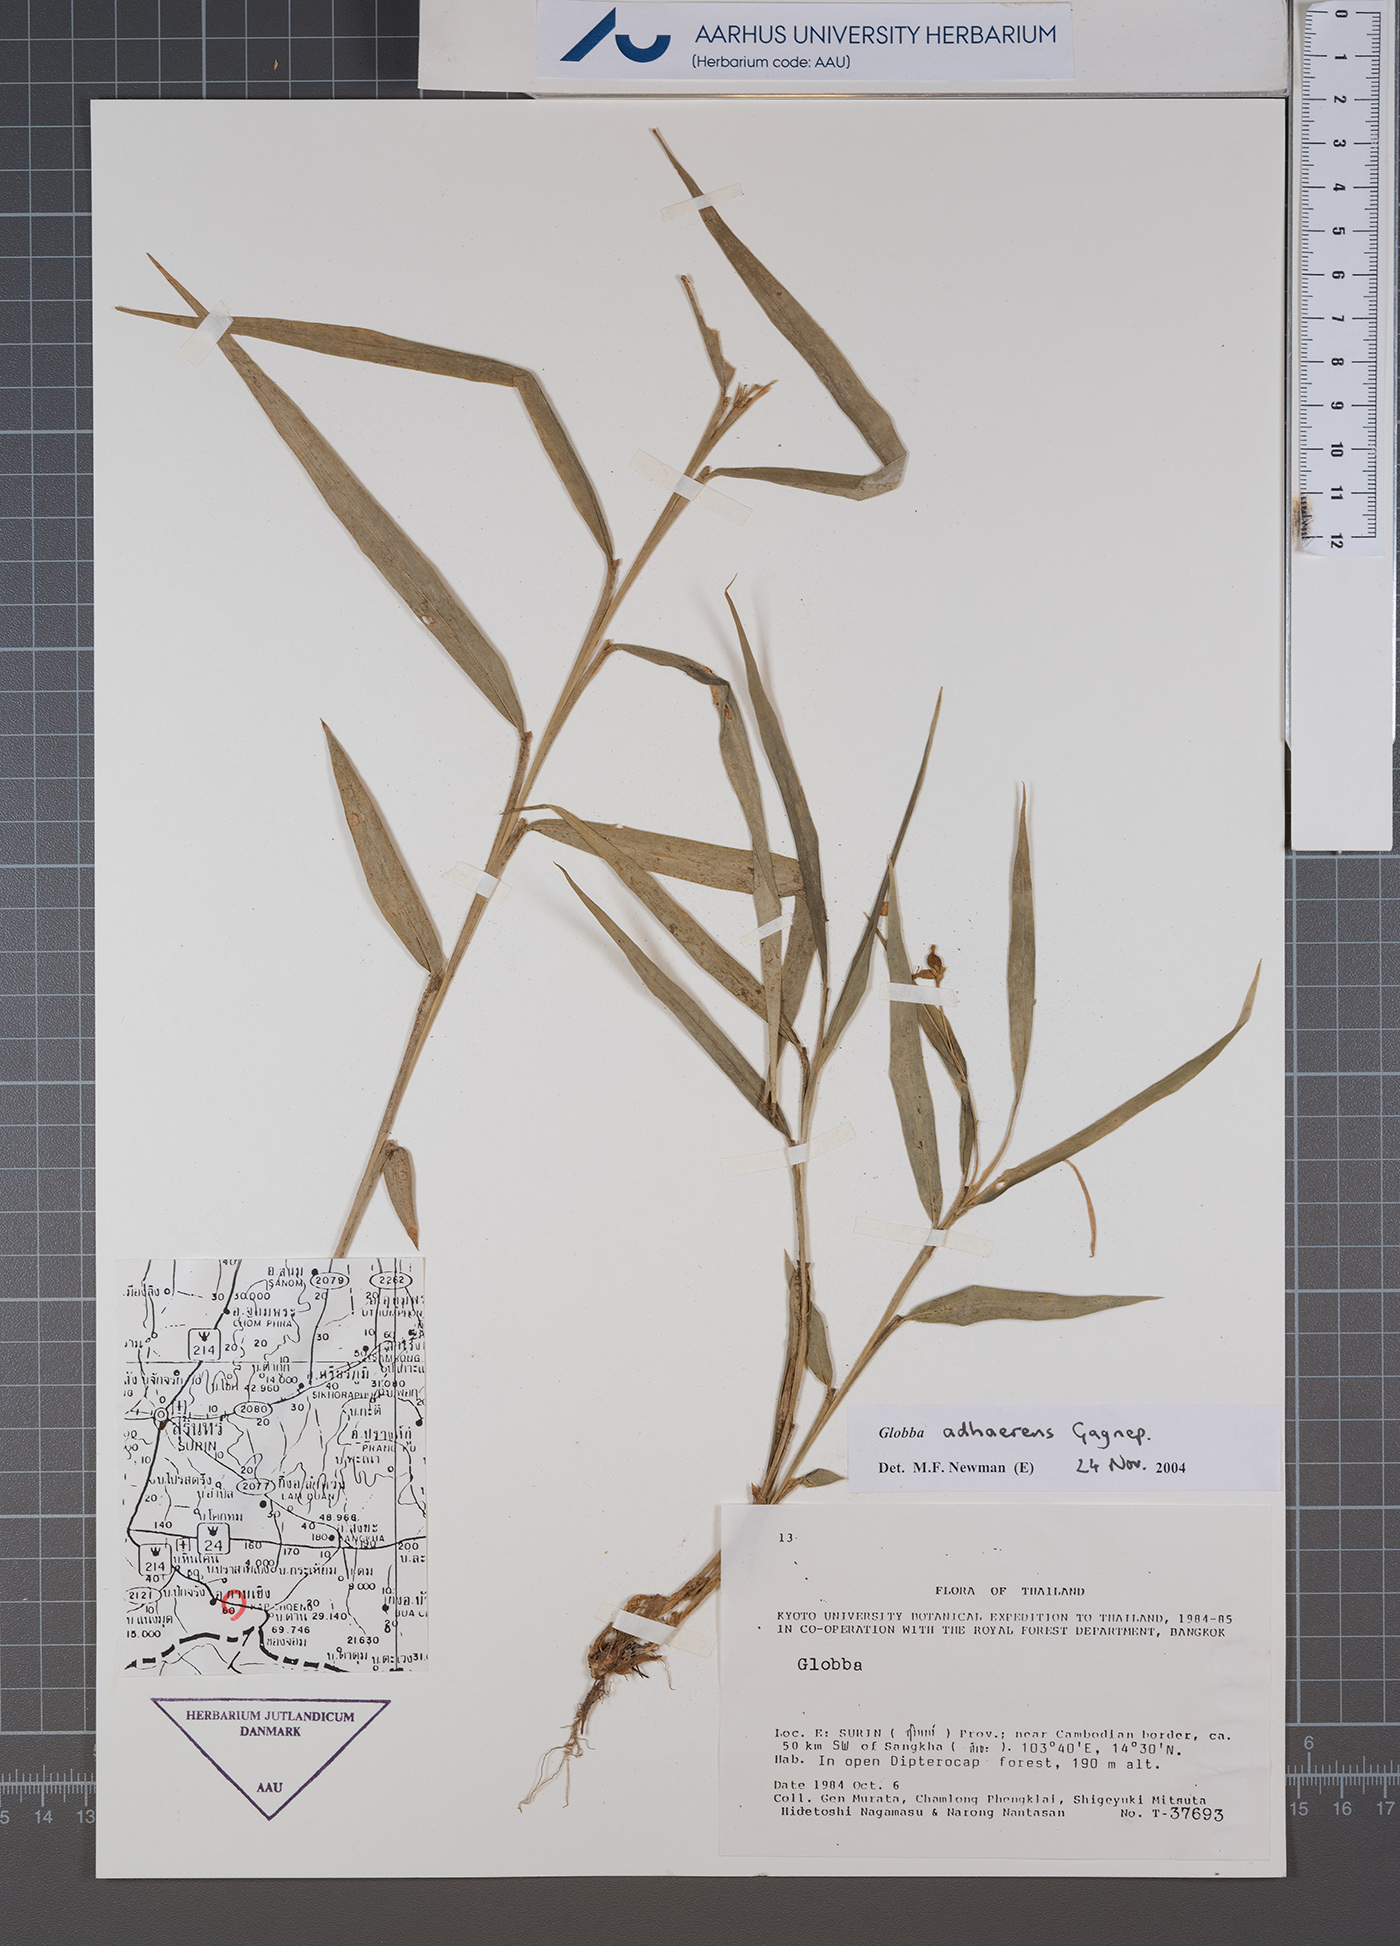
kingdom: Plantae
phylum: Tracheophyta
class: Liliopsida
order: Zingiberales
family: Zingiberaceae
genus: Globba
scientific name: Globba adhaerens
